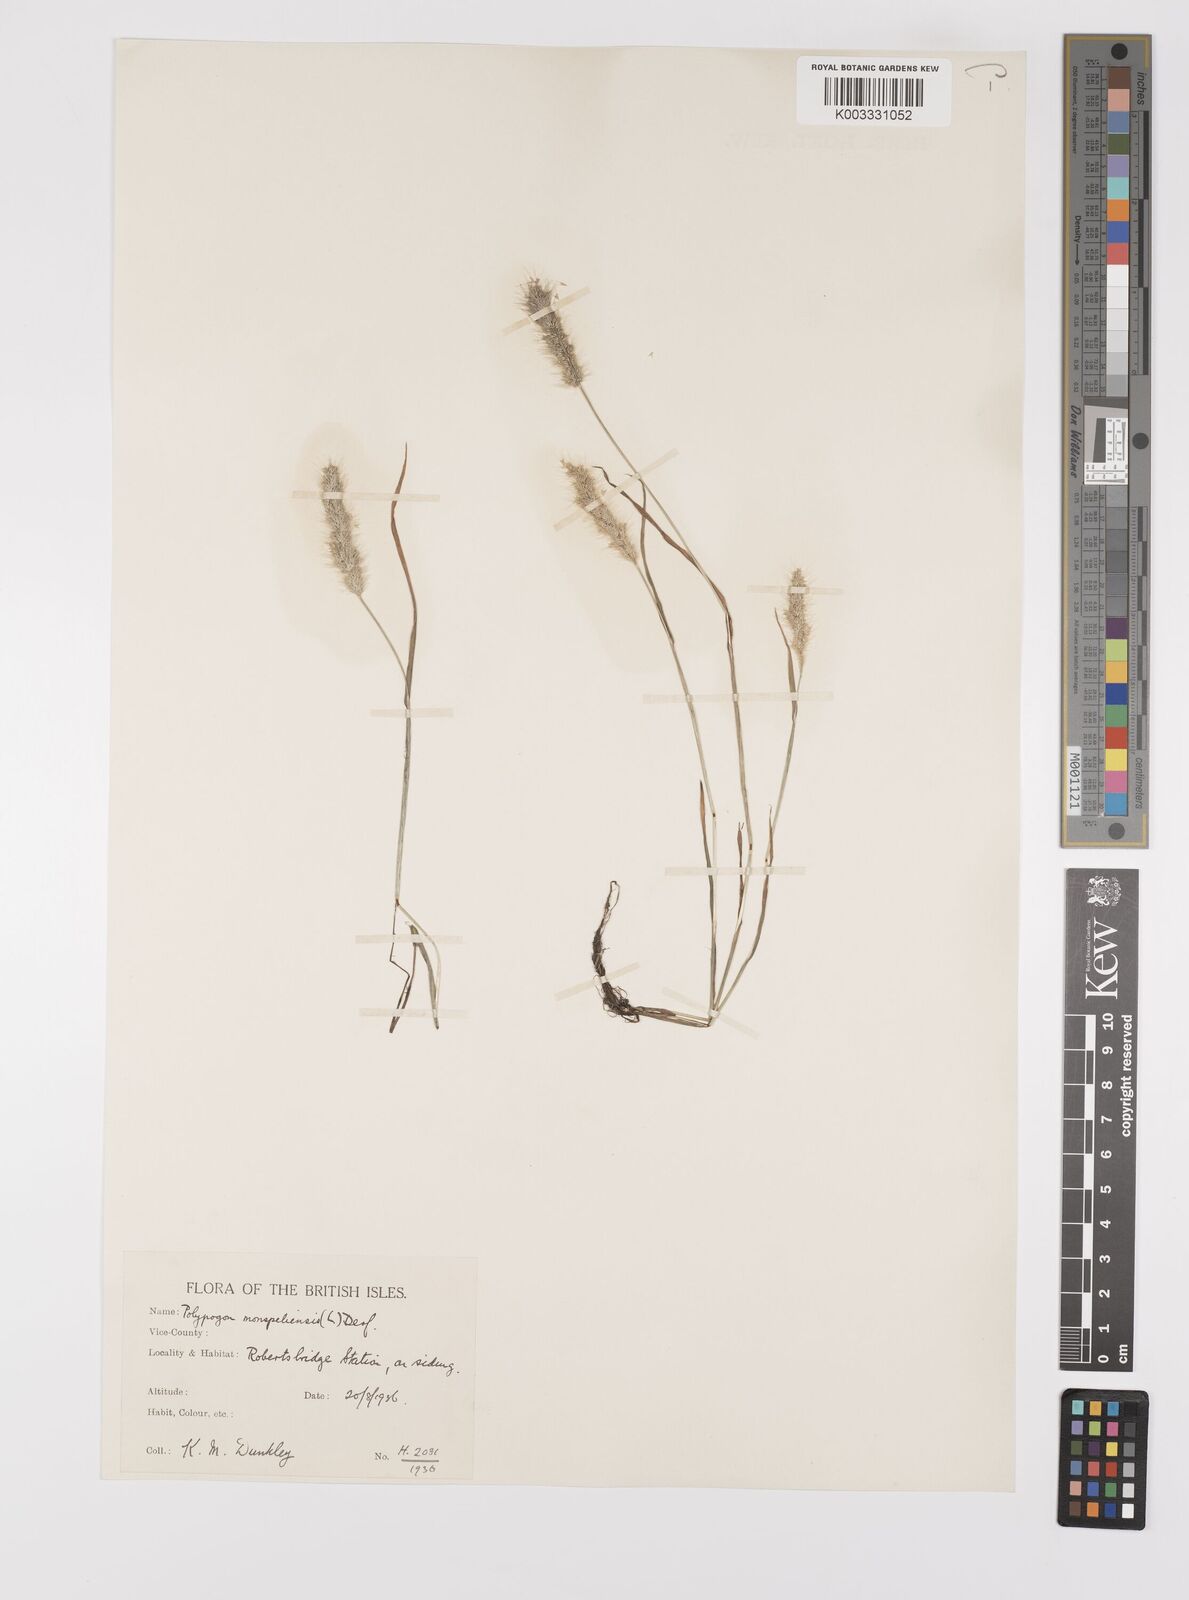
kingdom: Plantae
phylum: Tracheophyta
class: Liliopsida
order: Poales
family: Poaceae
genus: Polypogon
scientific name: Polypogon monspeliensis
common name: Annual rabbitsfoot grass
